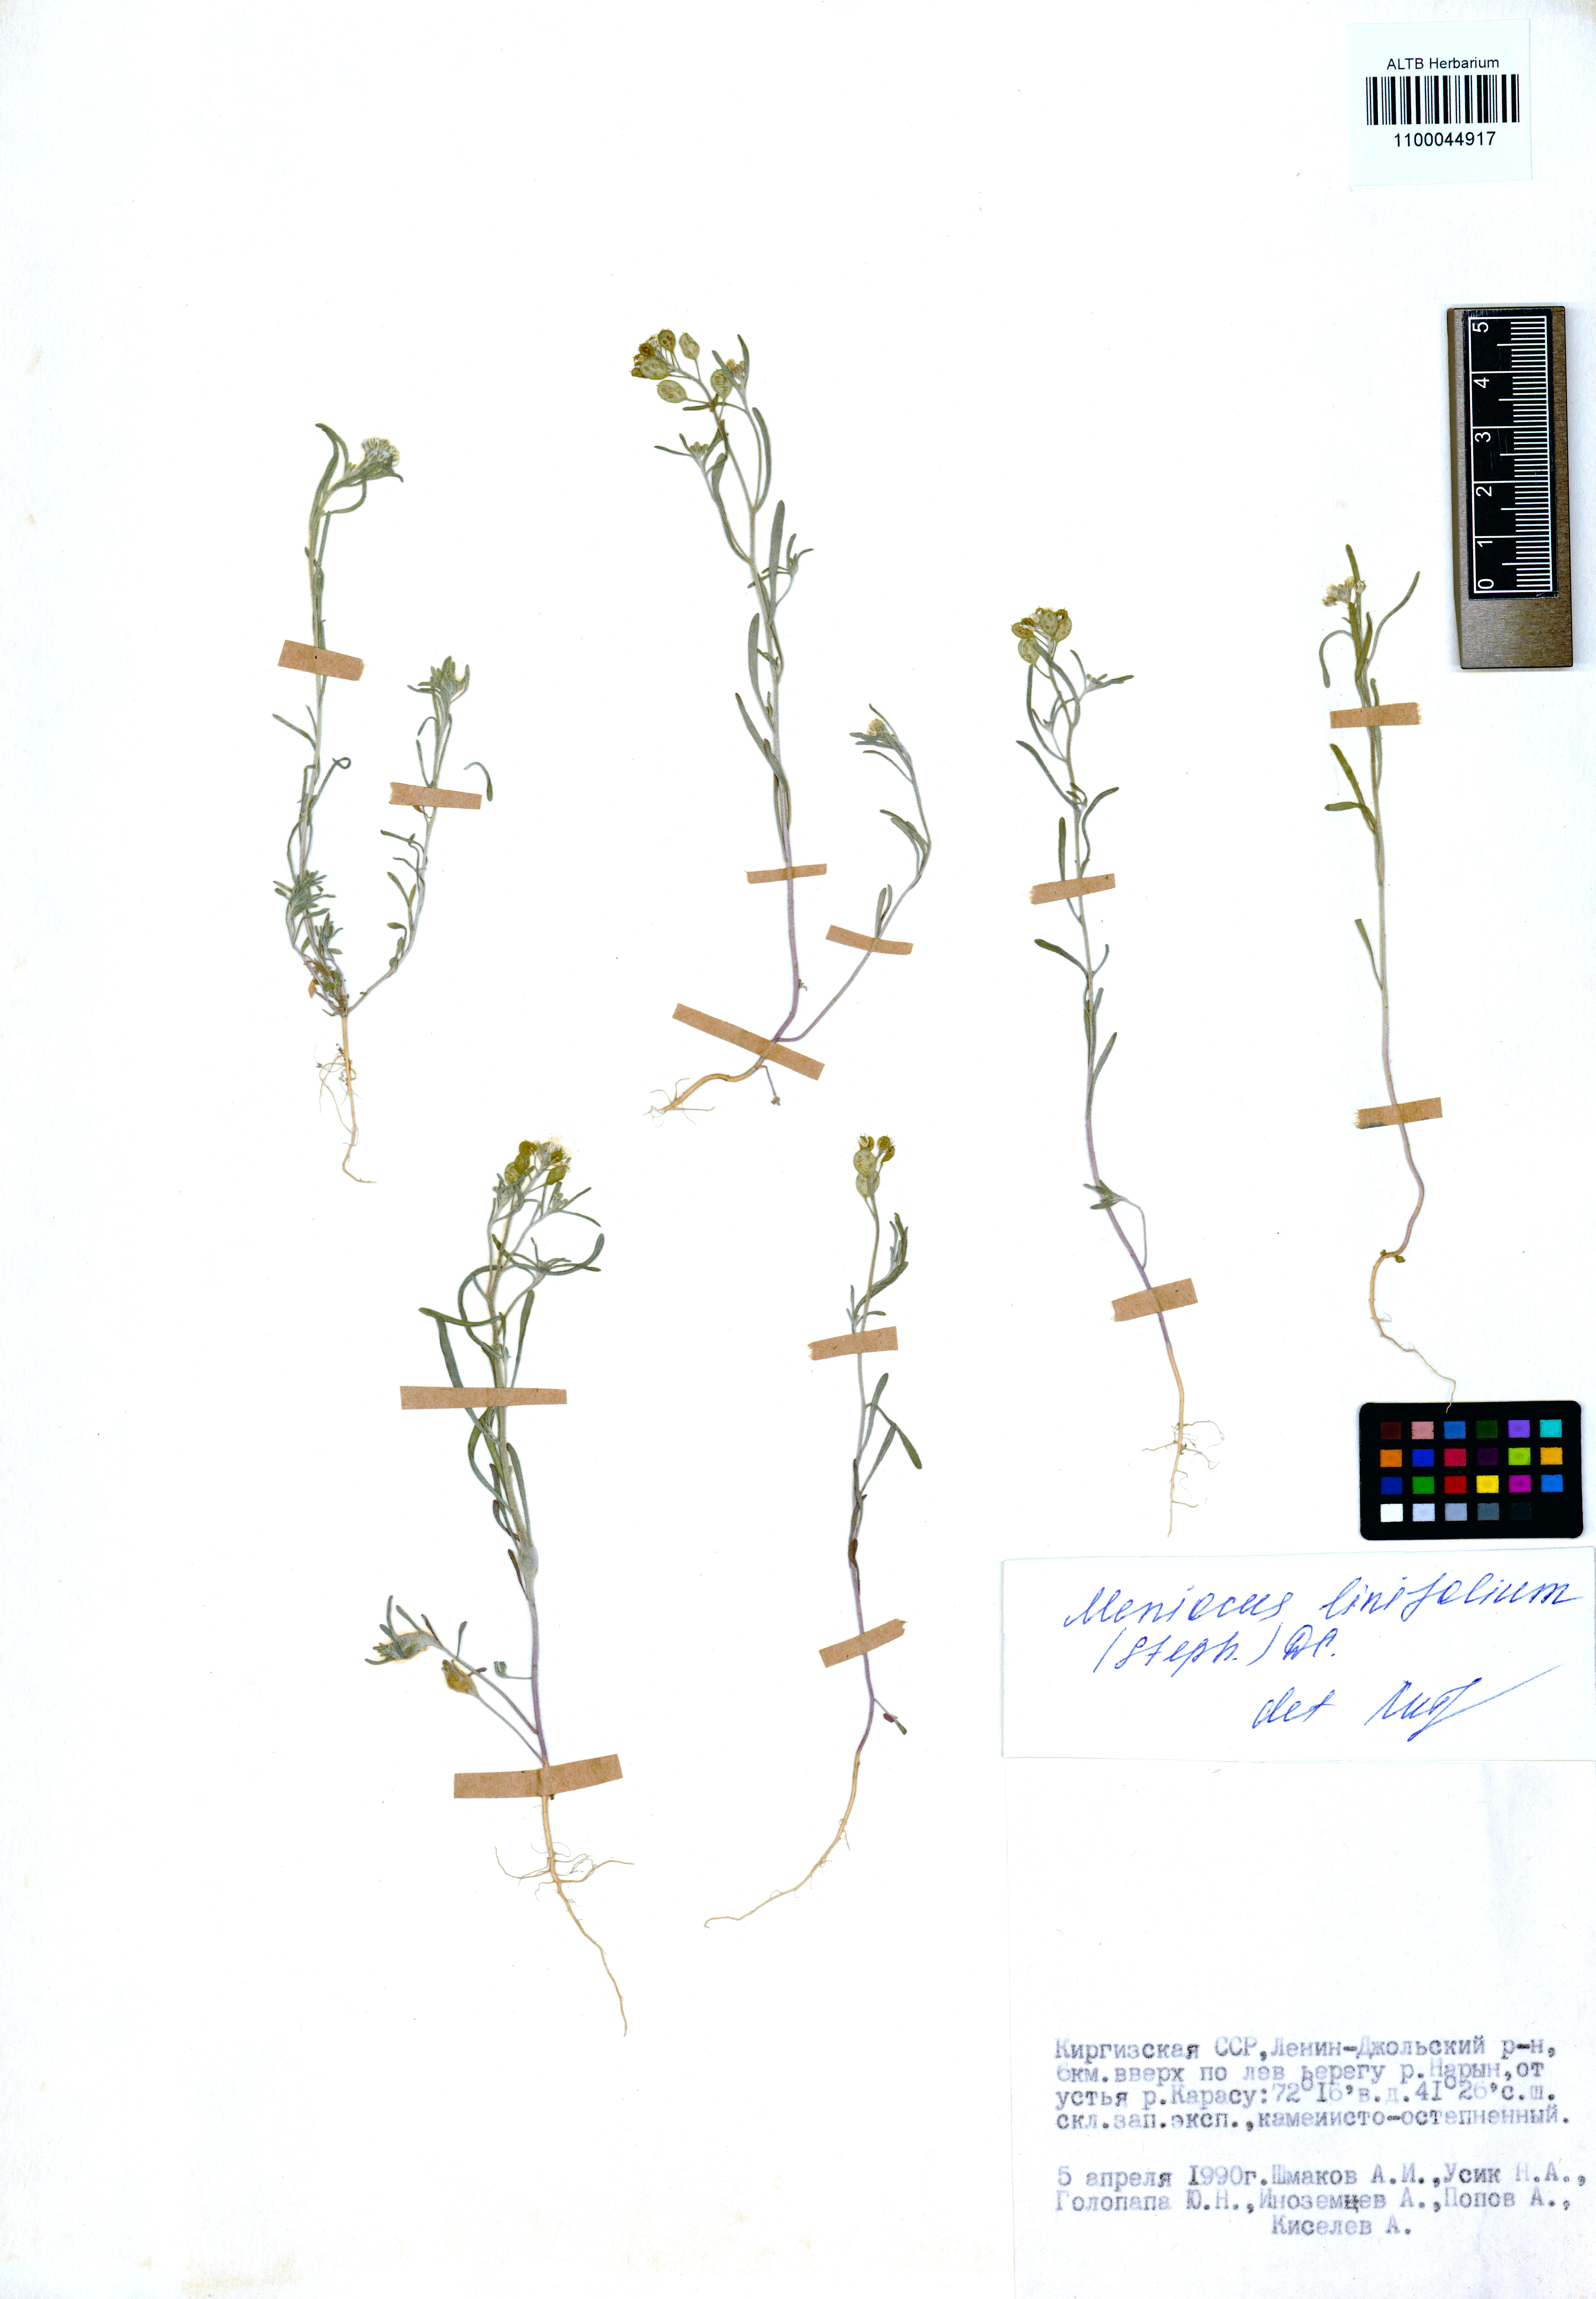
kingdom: Plantae
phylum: Tracheophyta
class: Magnoliopsida
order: Brassicales
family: Brassicaceae
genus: Meniocus
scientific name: Meniocus linifolius
